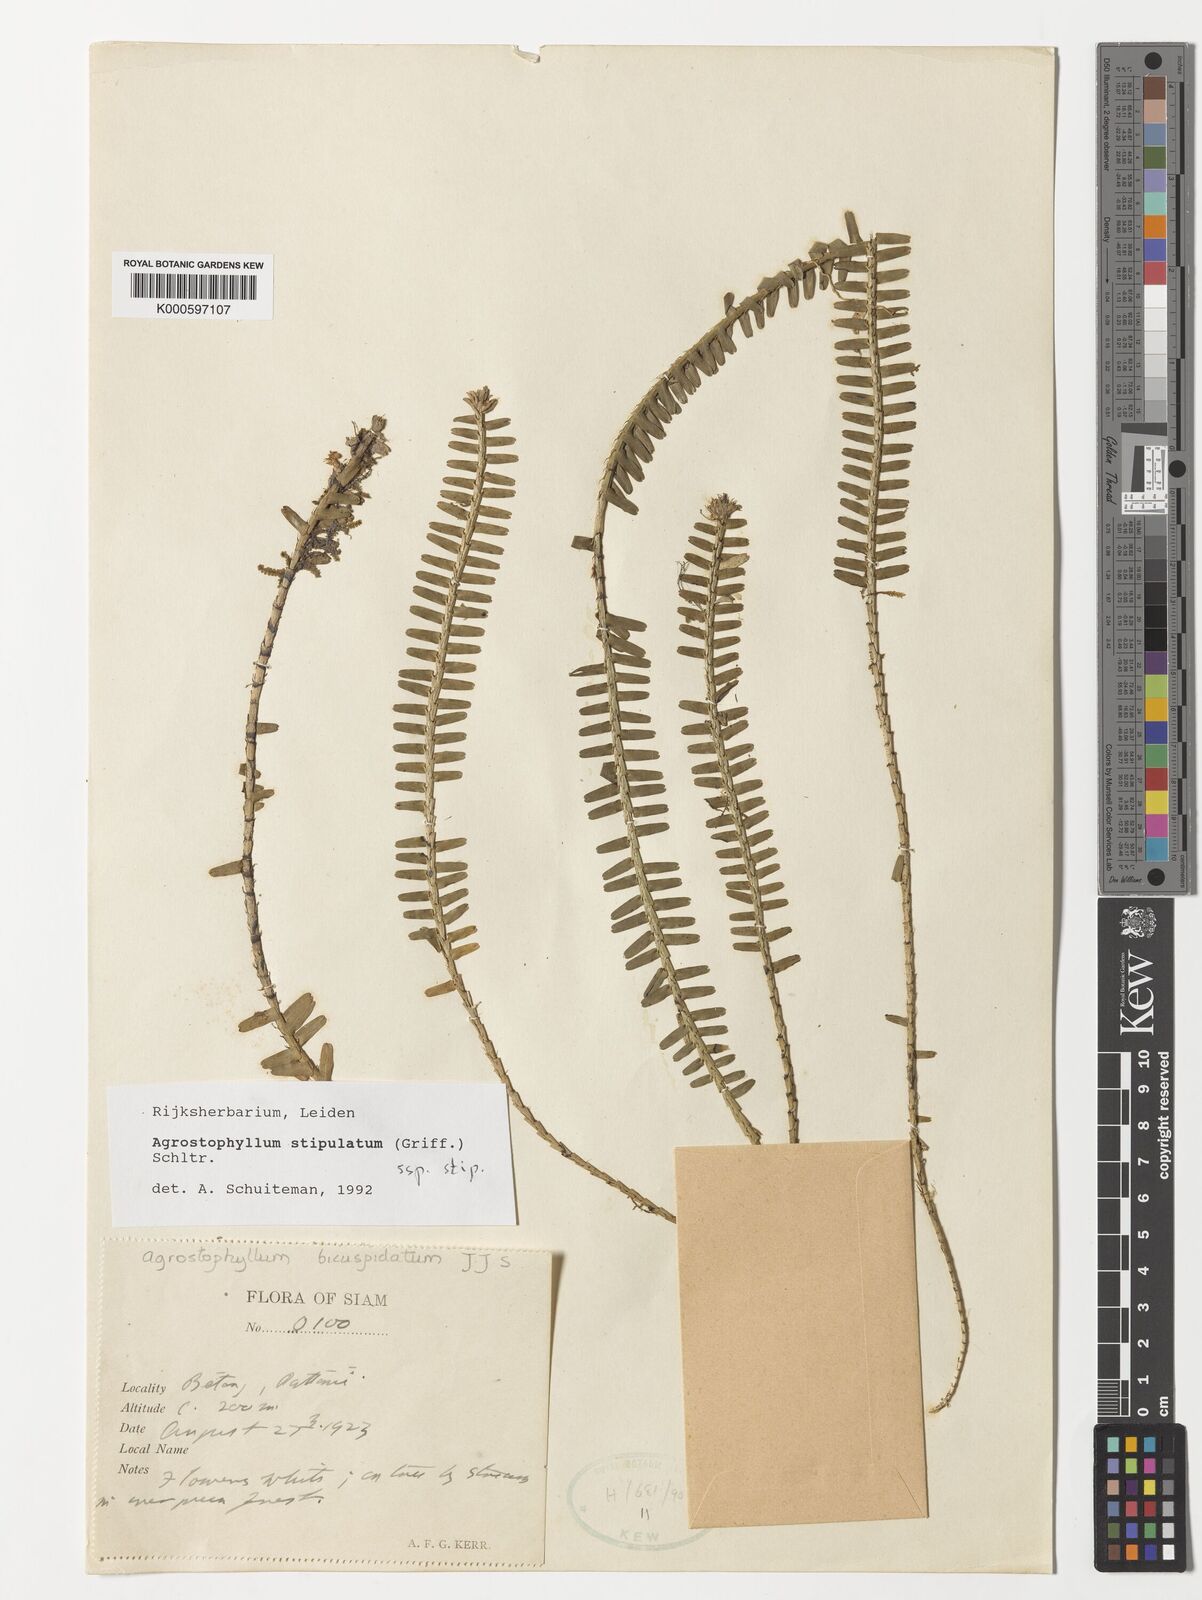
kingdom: Plantae
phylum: Tracheophyta
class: Liliopsida
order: Asparagales
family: Orchidaceae
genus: Agrostophyllum
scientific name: Agrostophyllum stipulatum
